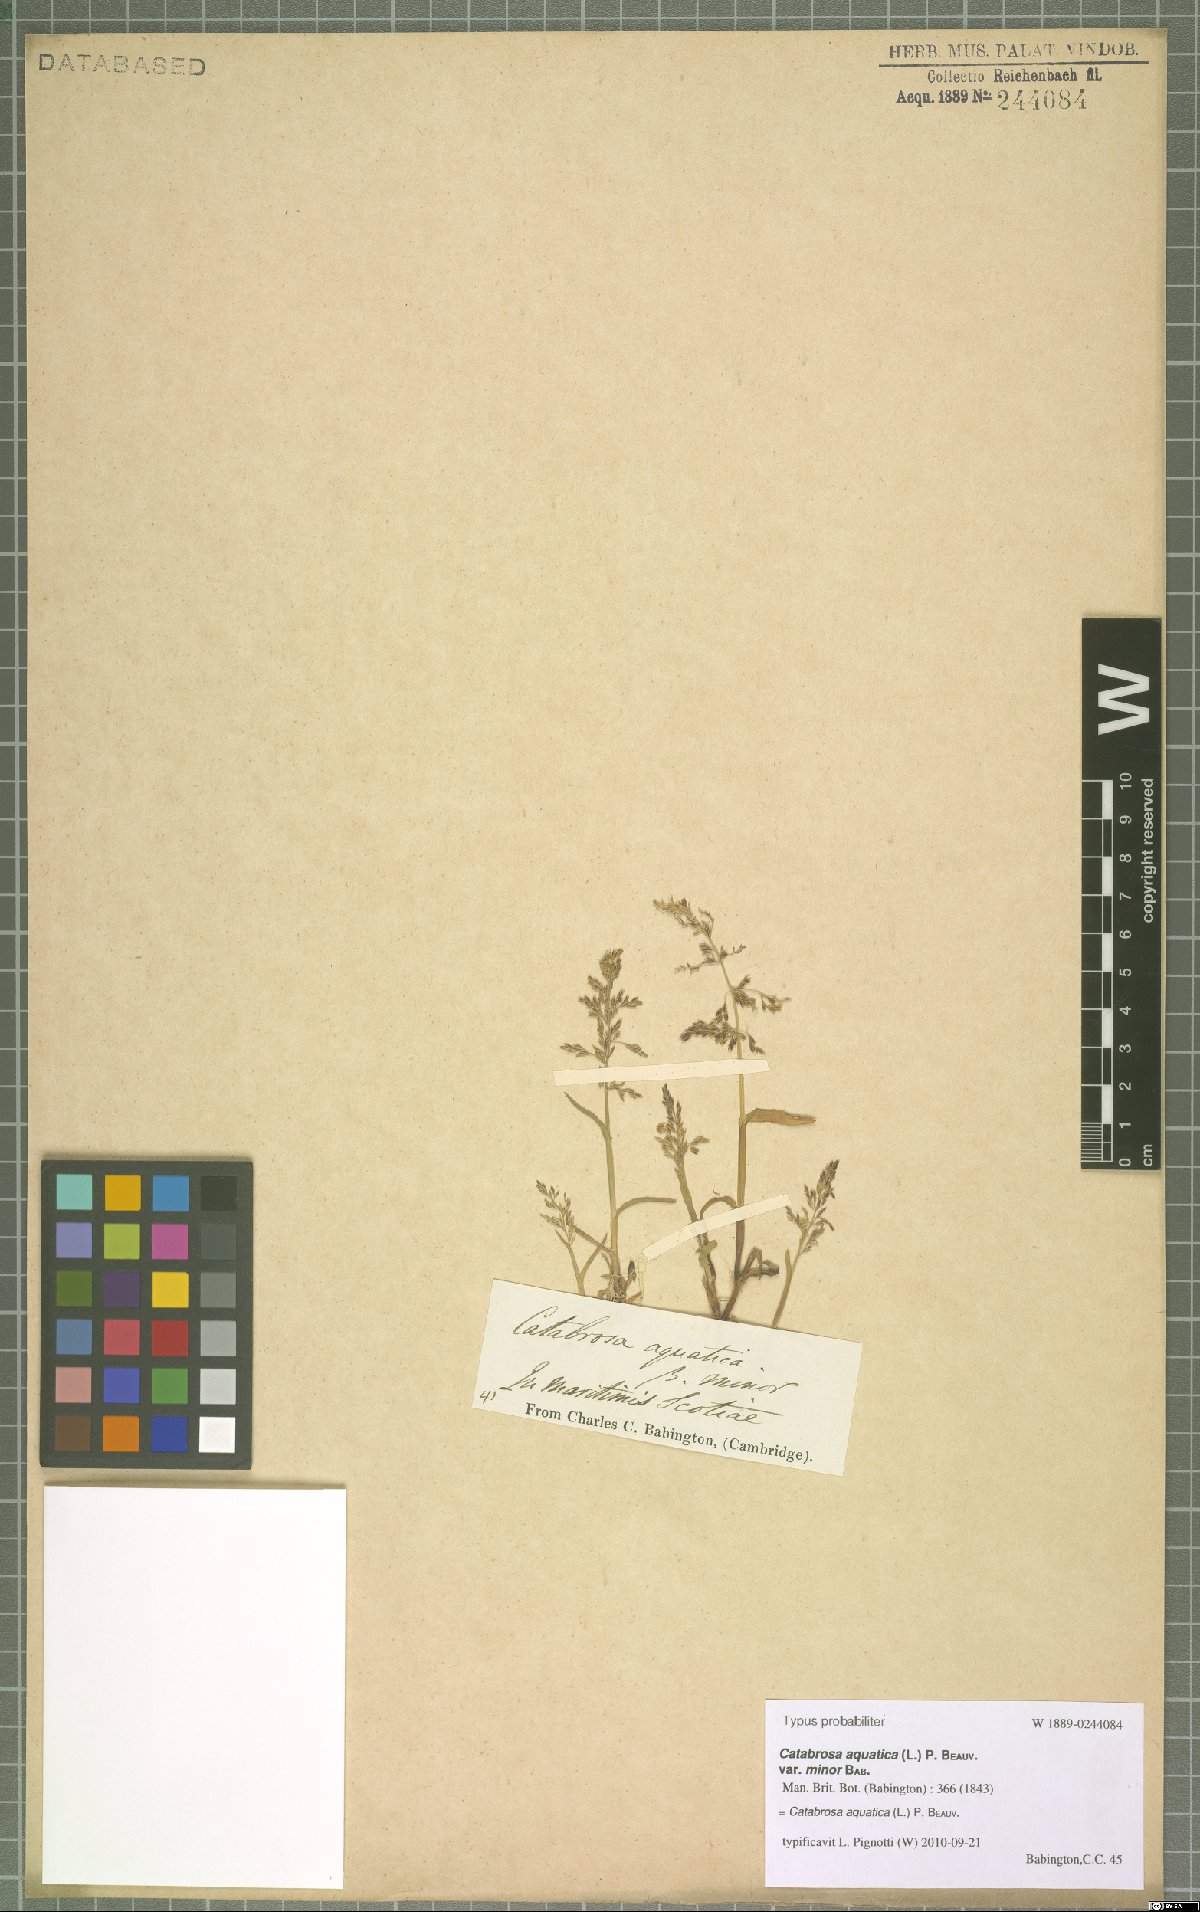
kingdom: Plantae
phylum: Tracheophyta
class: Liliopsida
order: Poales
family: Poaceae
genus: Catabrosa
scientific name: Catabrosa aquatica
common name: Whorl-grass
